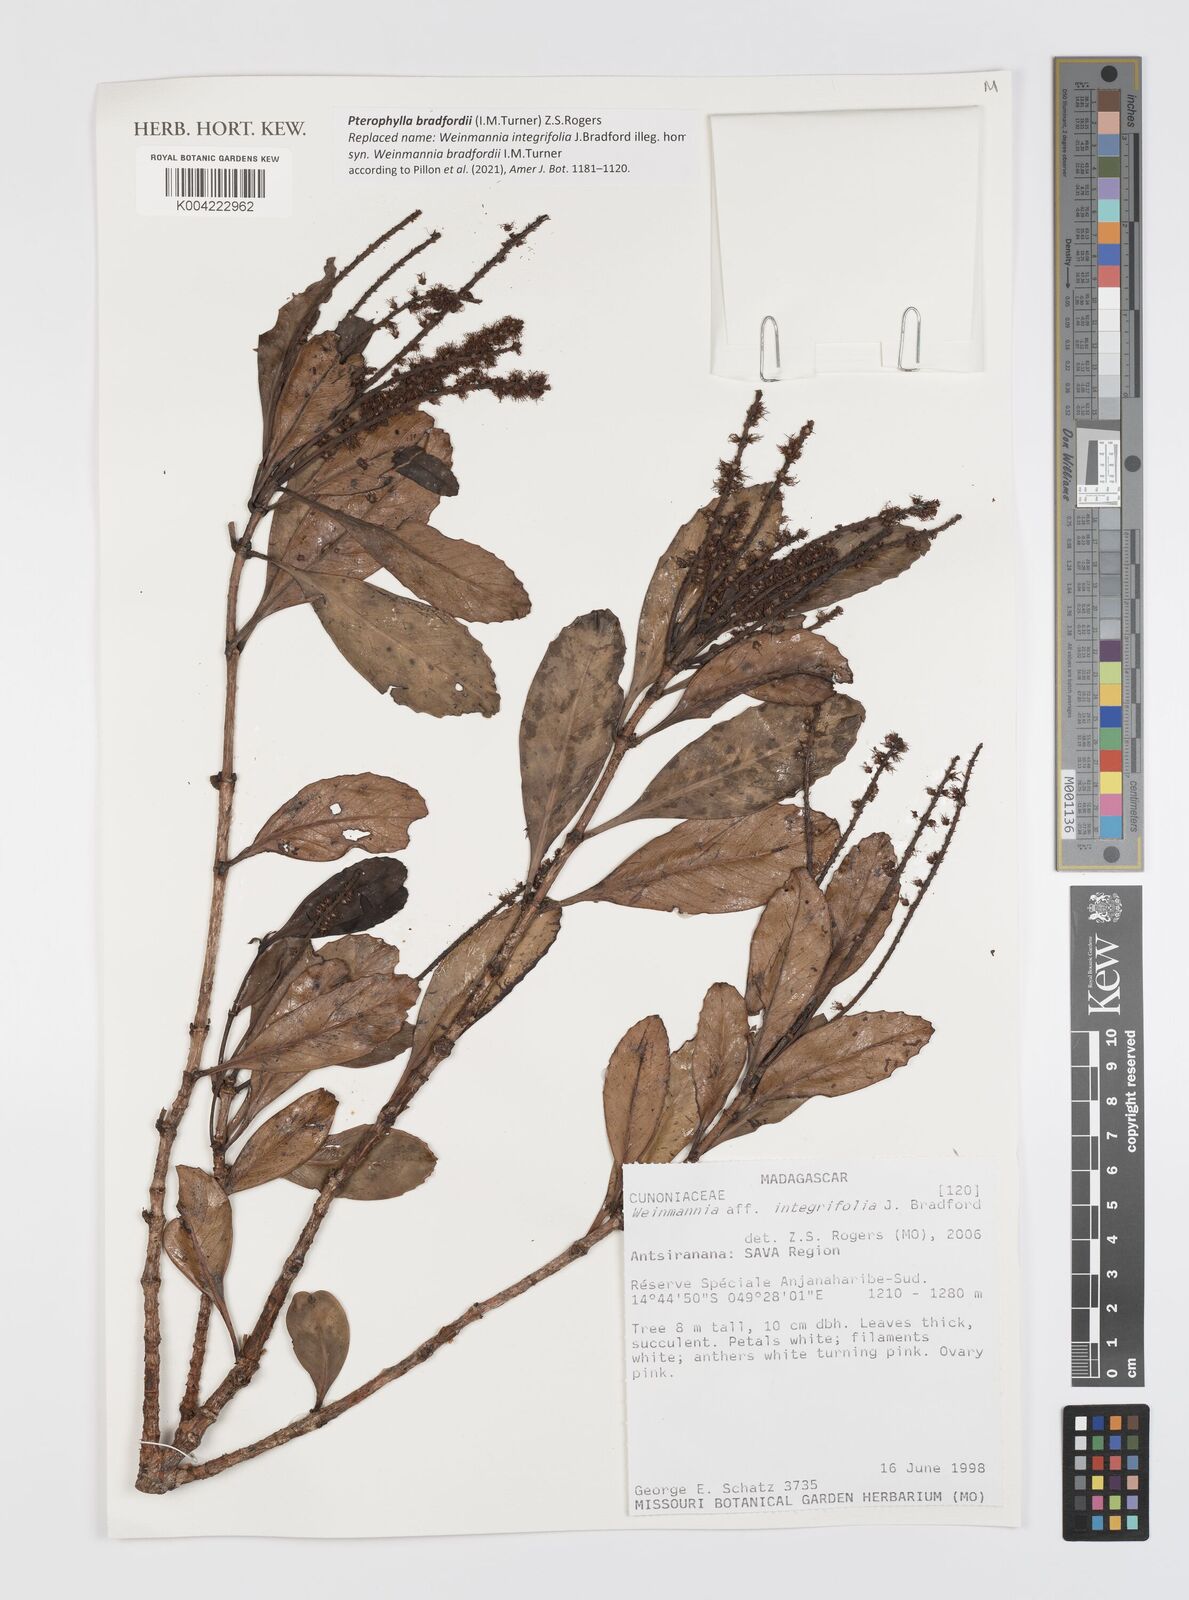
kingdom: Plantae
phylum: Tracheophyta
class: Magnoliopsida
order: Oxalidales
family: Cunoniaceae
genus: Pterophylla
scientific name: Pterophylla bradfordii
